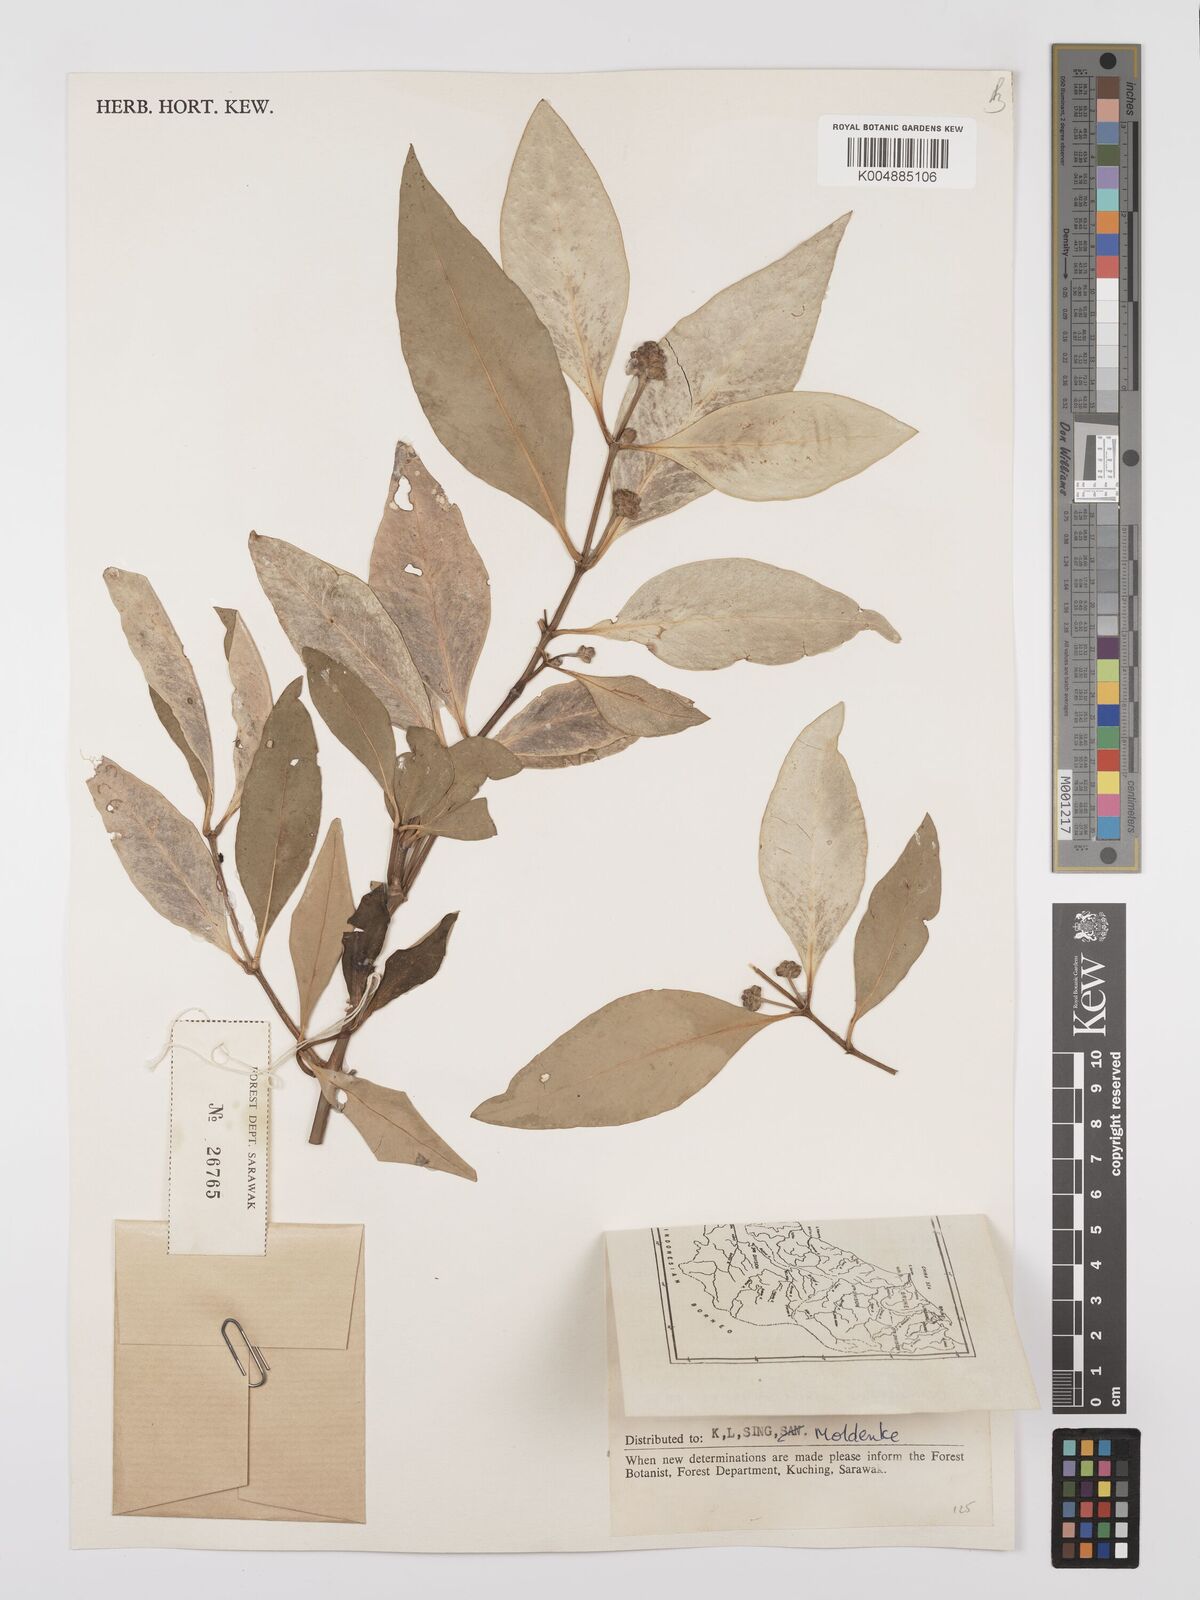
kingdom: Plantae
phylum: Tracheophyta
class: Magnoliopsida
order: Lamiales
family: Acanthaceae
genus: Avicennia
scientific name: Avicennia marina
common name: Gray mangrove
